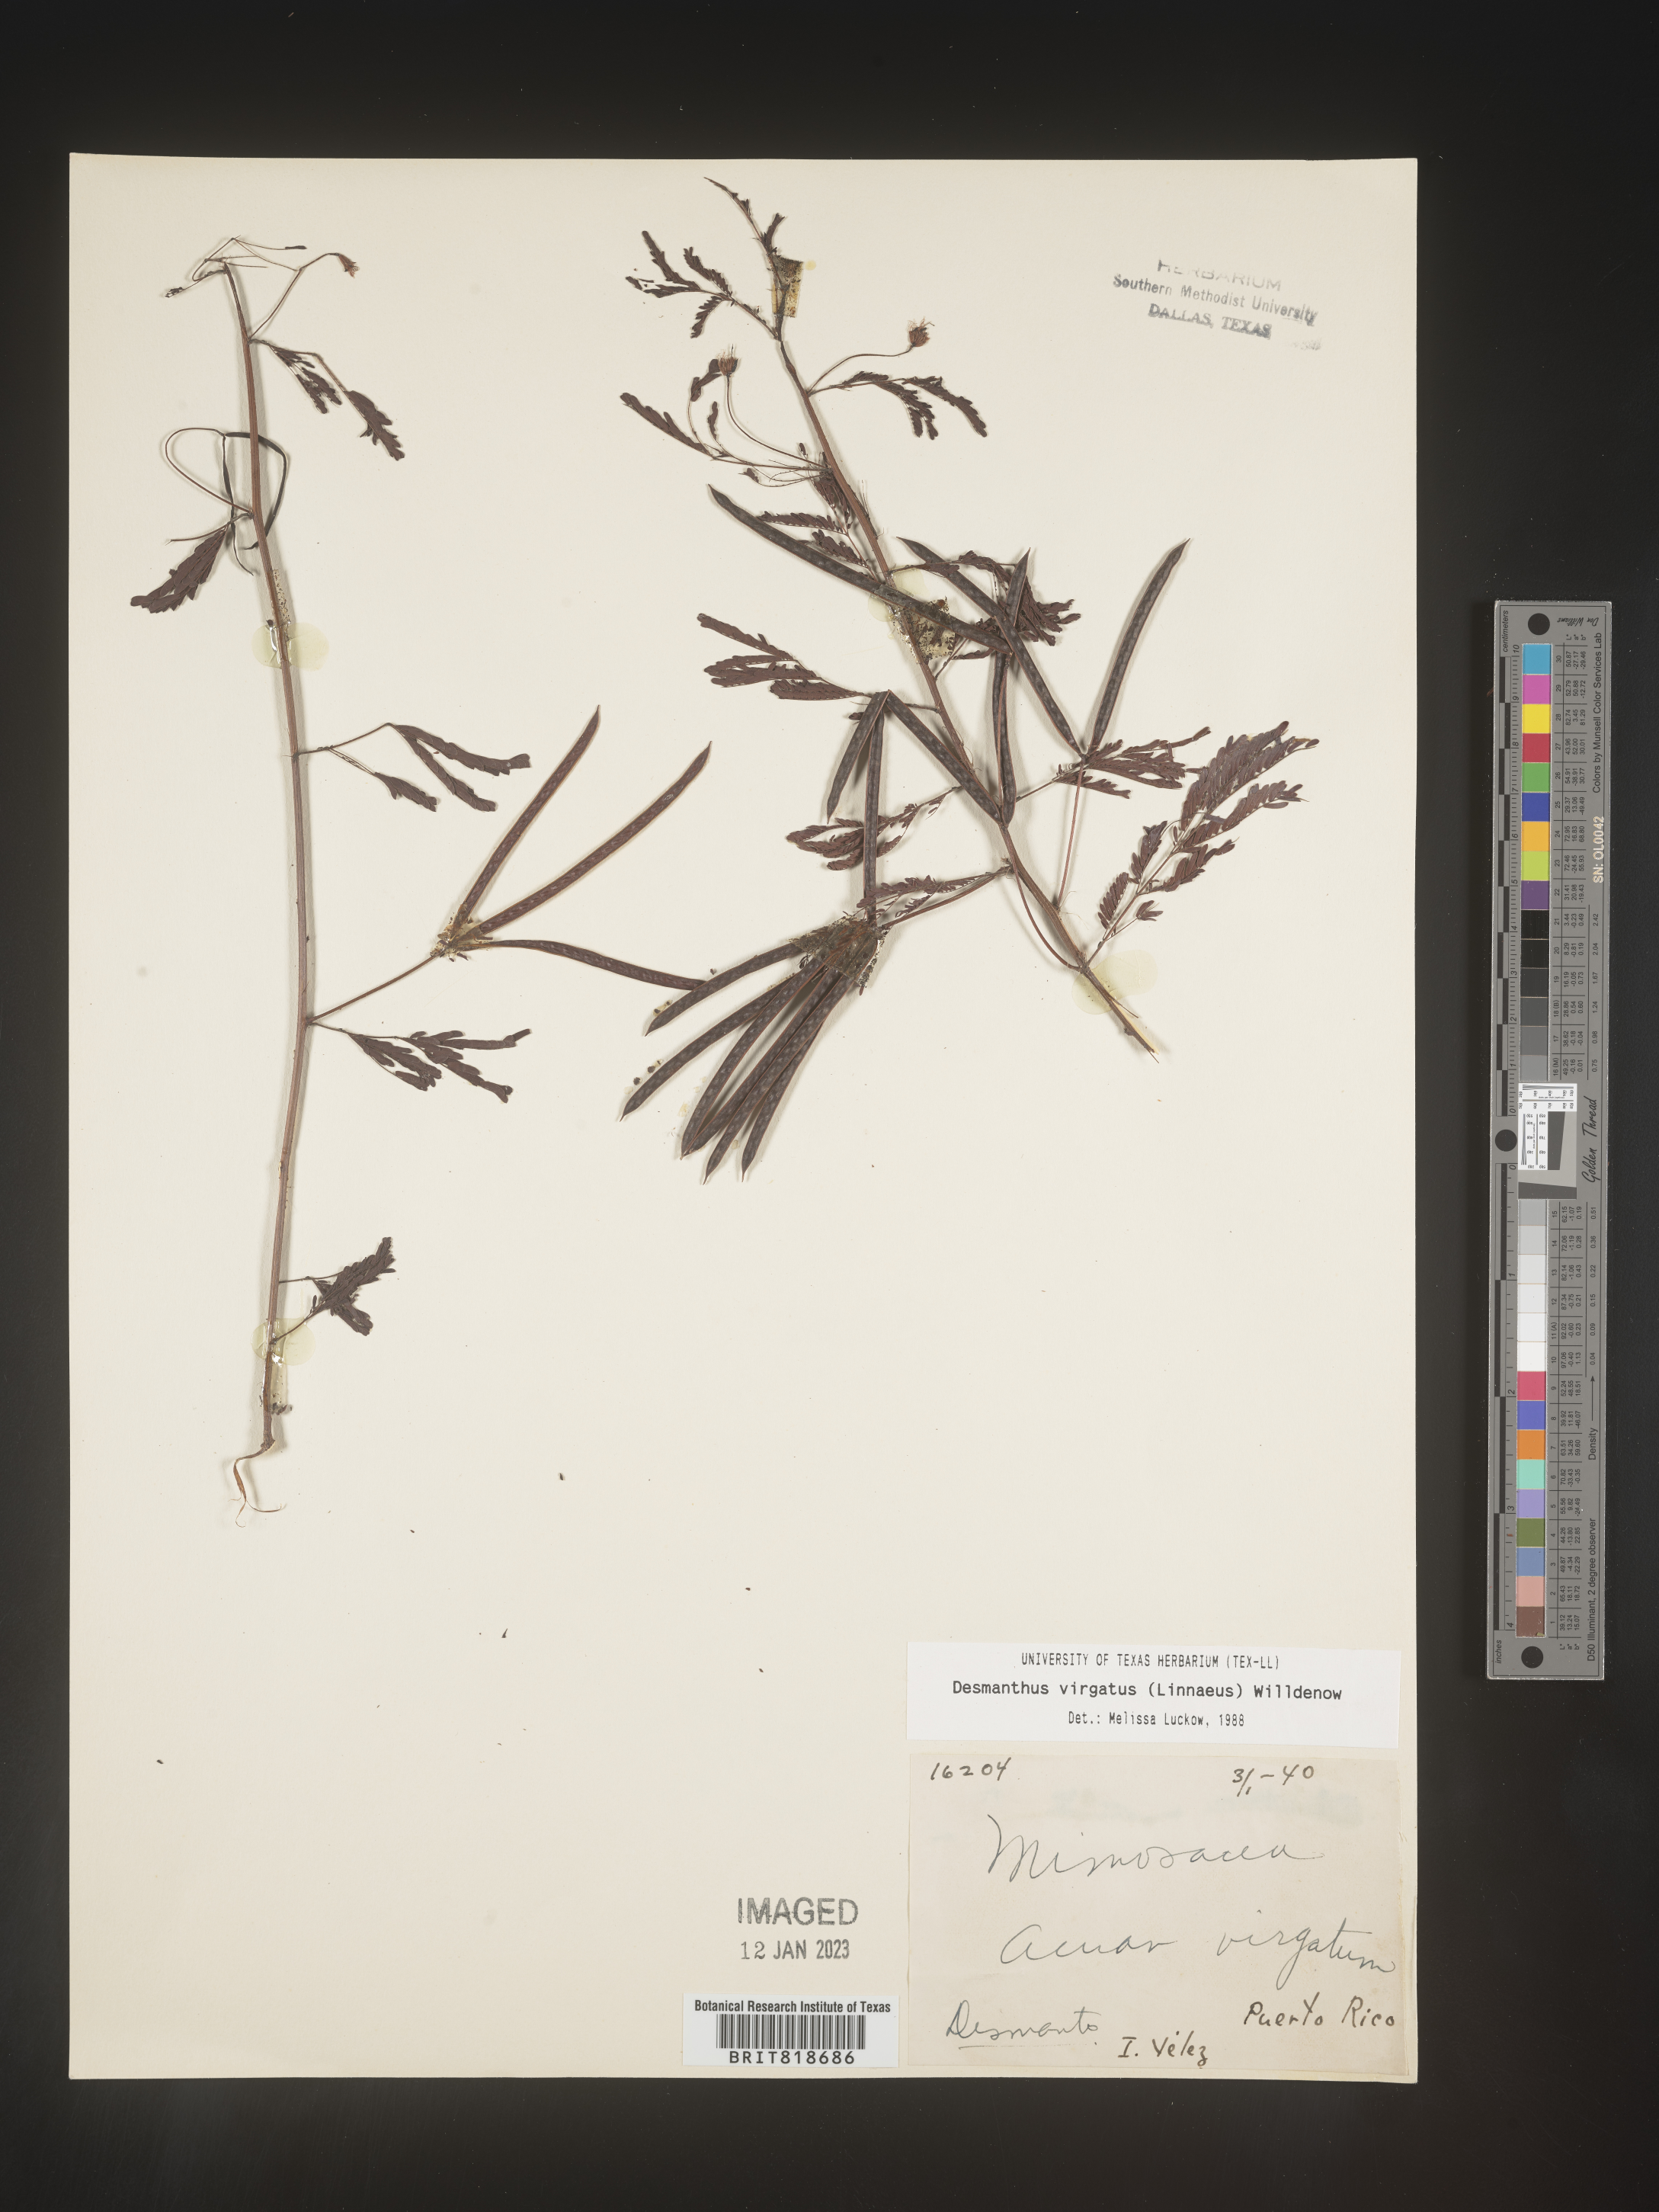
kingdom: Plantae
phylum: Tracheophyta
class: Magnoliopsida
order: Fabales
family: Fabaceae
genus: Desmanthus
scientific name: Desmanthus
